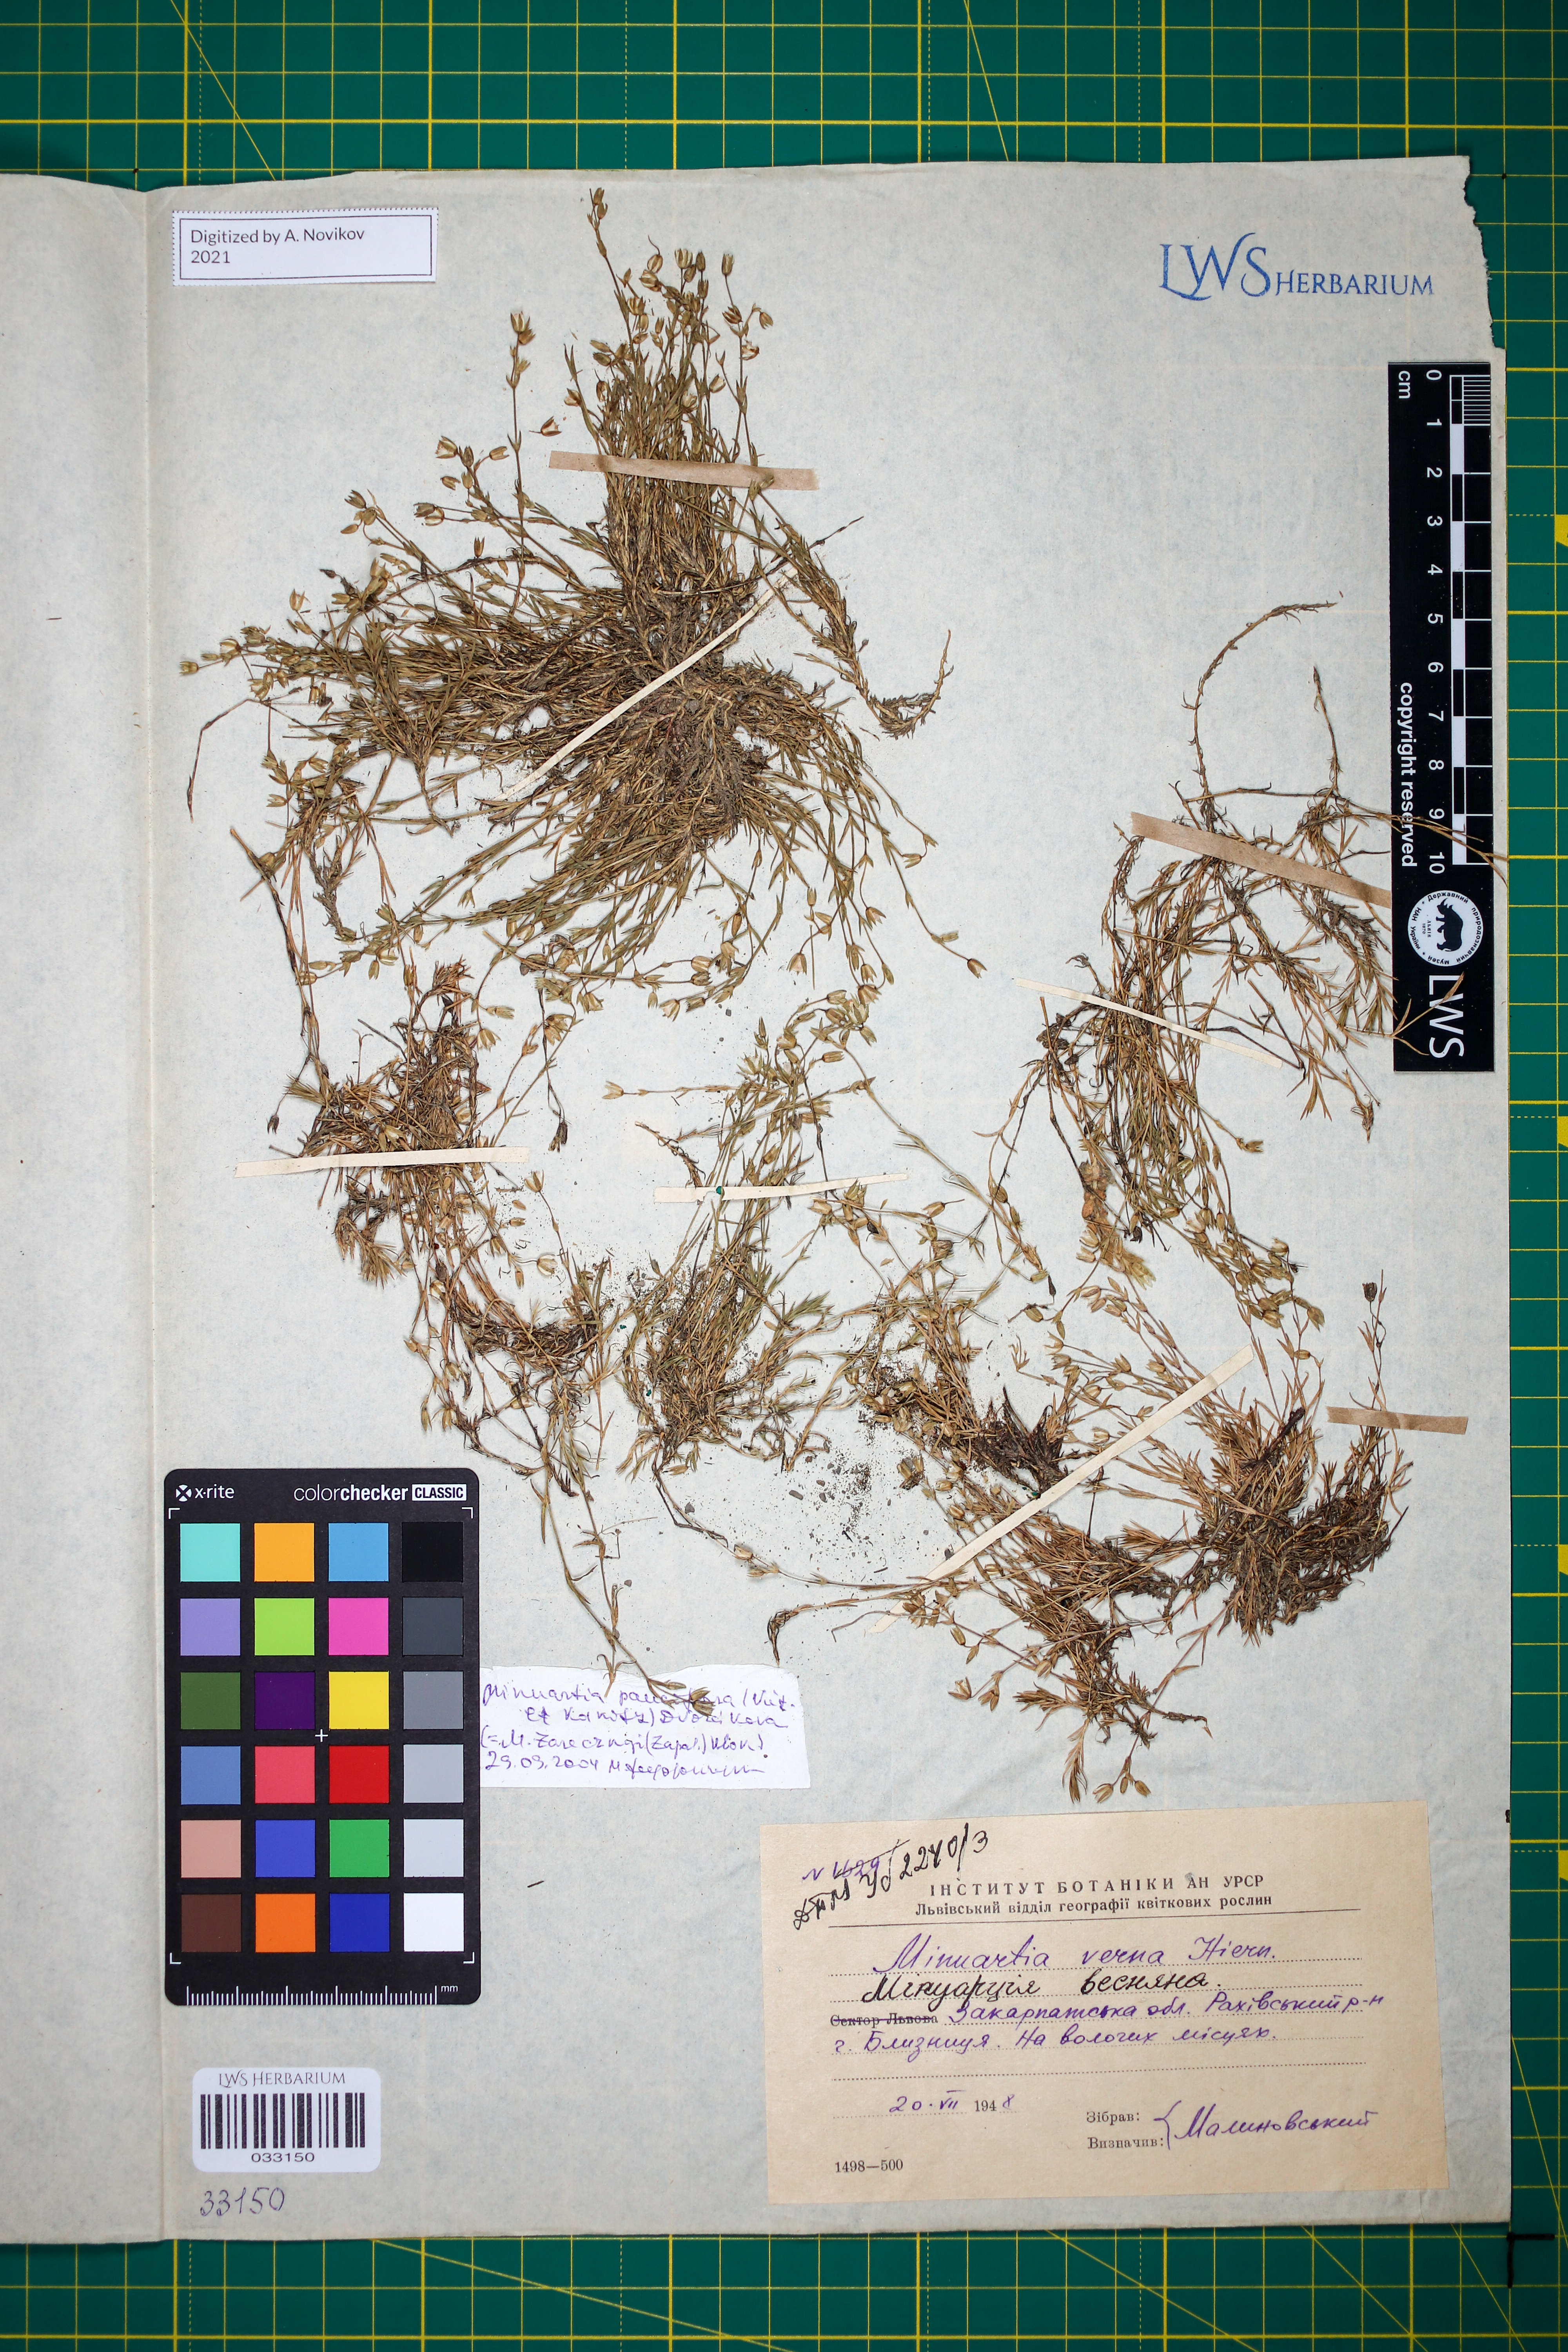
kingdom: Plantae
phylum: Tracheophyta
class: Magnoliopsida
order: Caryophyllales
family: Caryophyllaceae
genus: Minuartia
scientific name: Minuartia pauciflora
